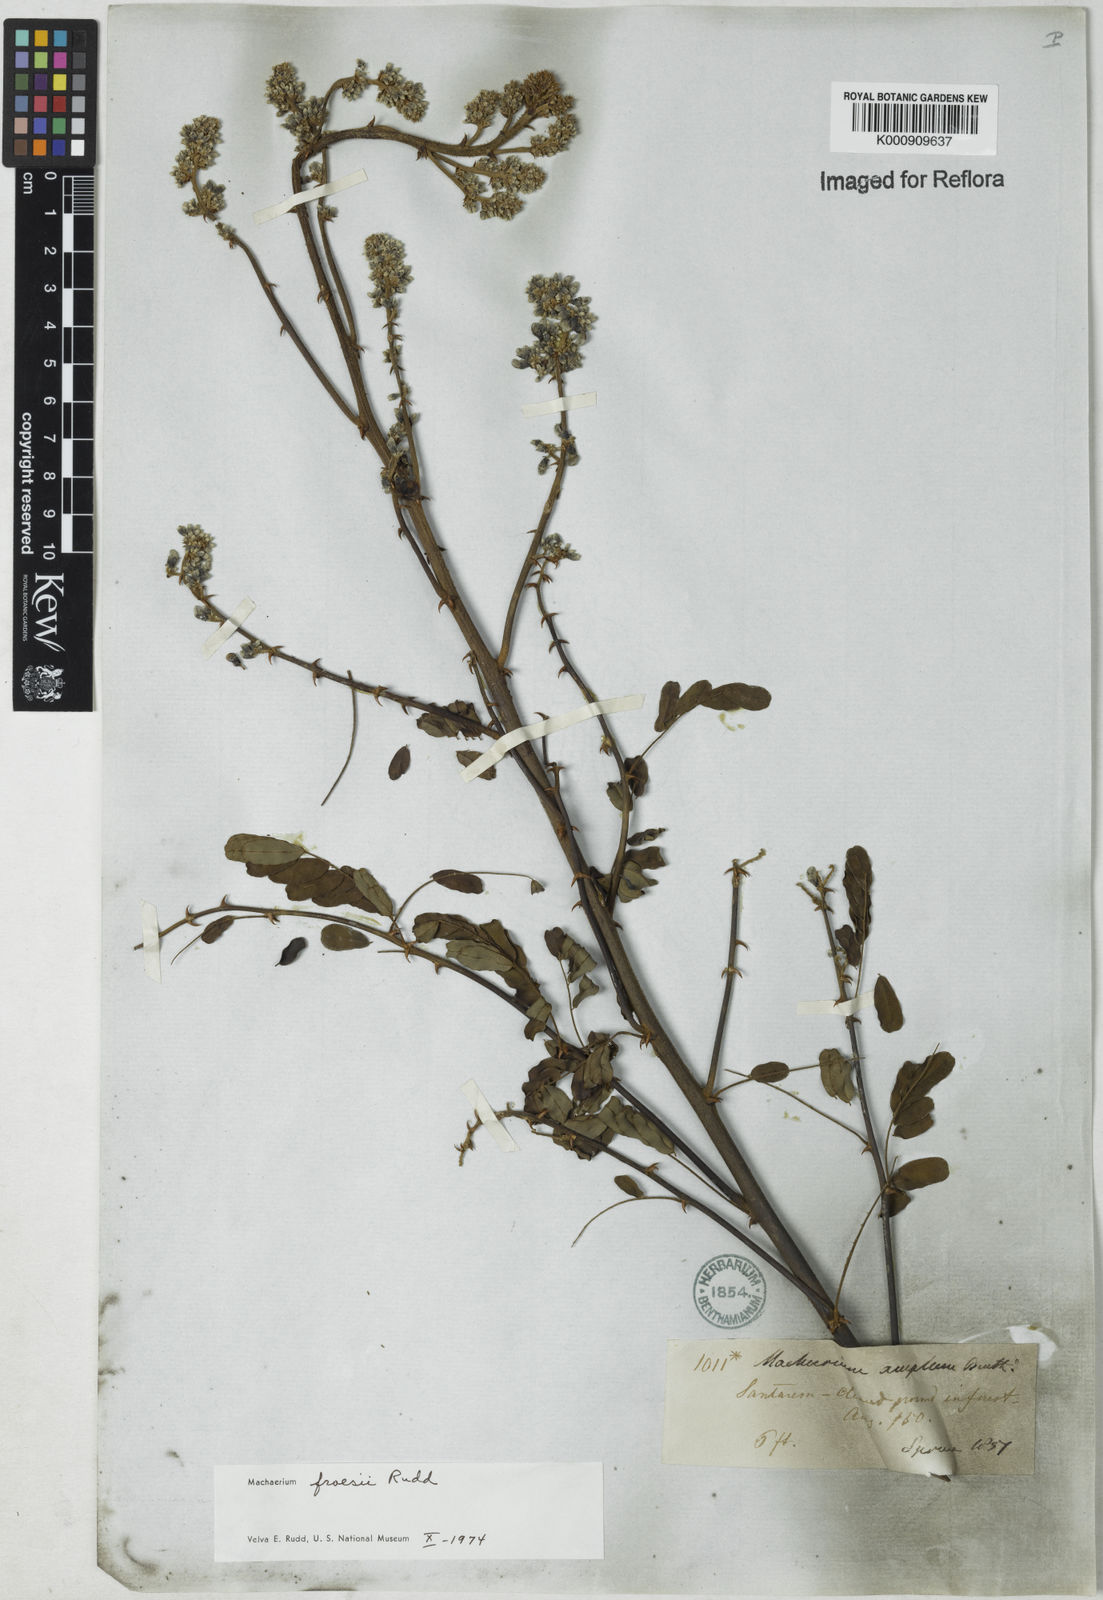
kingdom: Plantae
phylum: Tracheophyta
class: Magnoliopsida
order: Fabales
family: Fabaceae
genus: Machaerium
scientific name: Machaerium froesii
